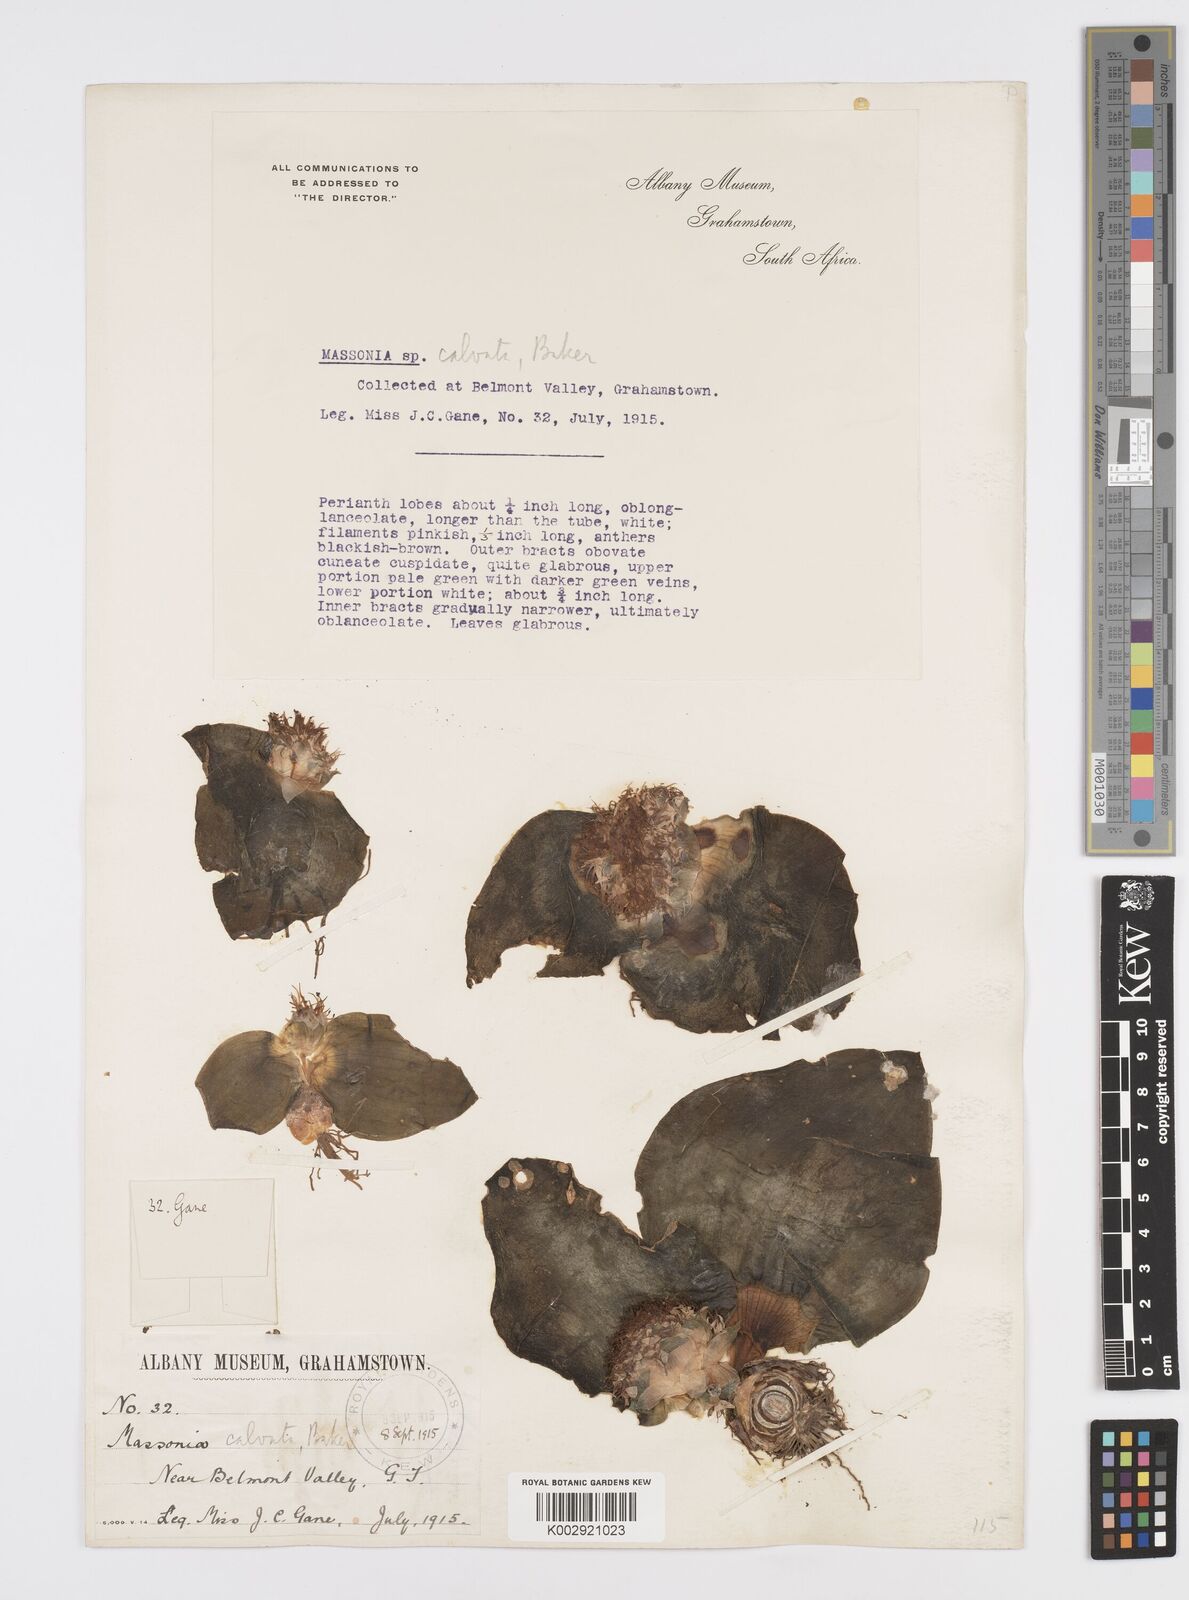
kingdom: Plantae
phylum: Tracheophyta
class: Liliopsida
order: Asparagales
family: Asparagaceae
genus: Massonia
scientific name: Massonia
